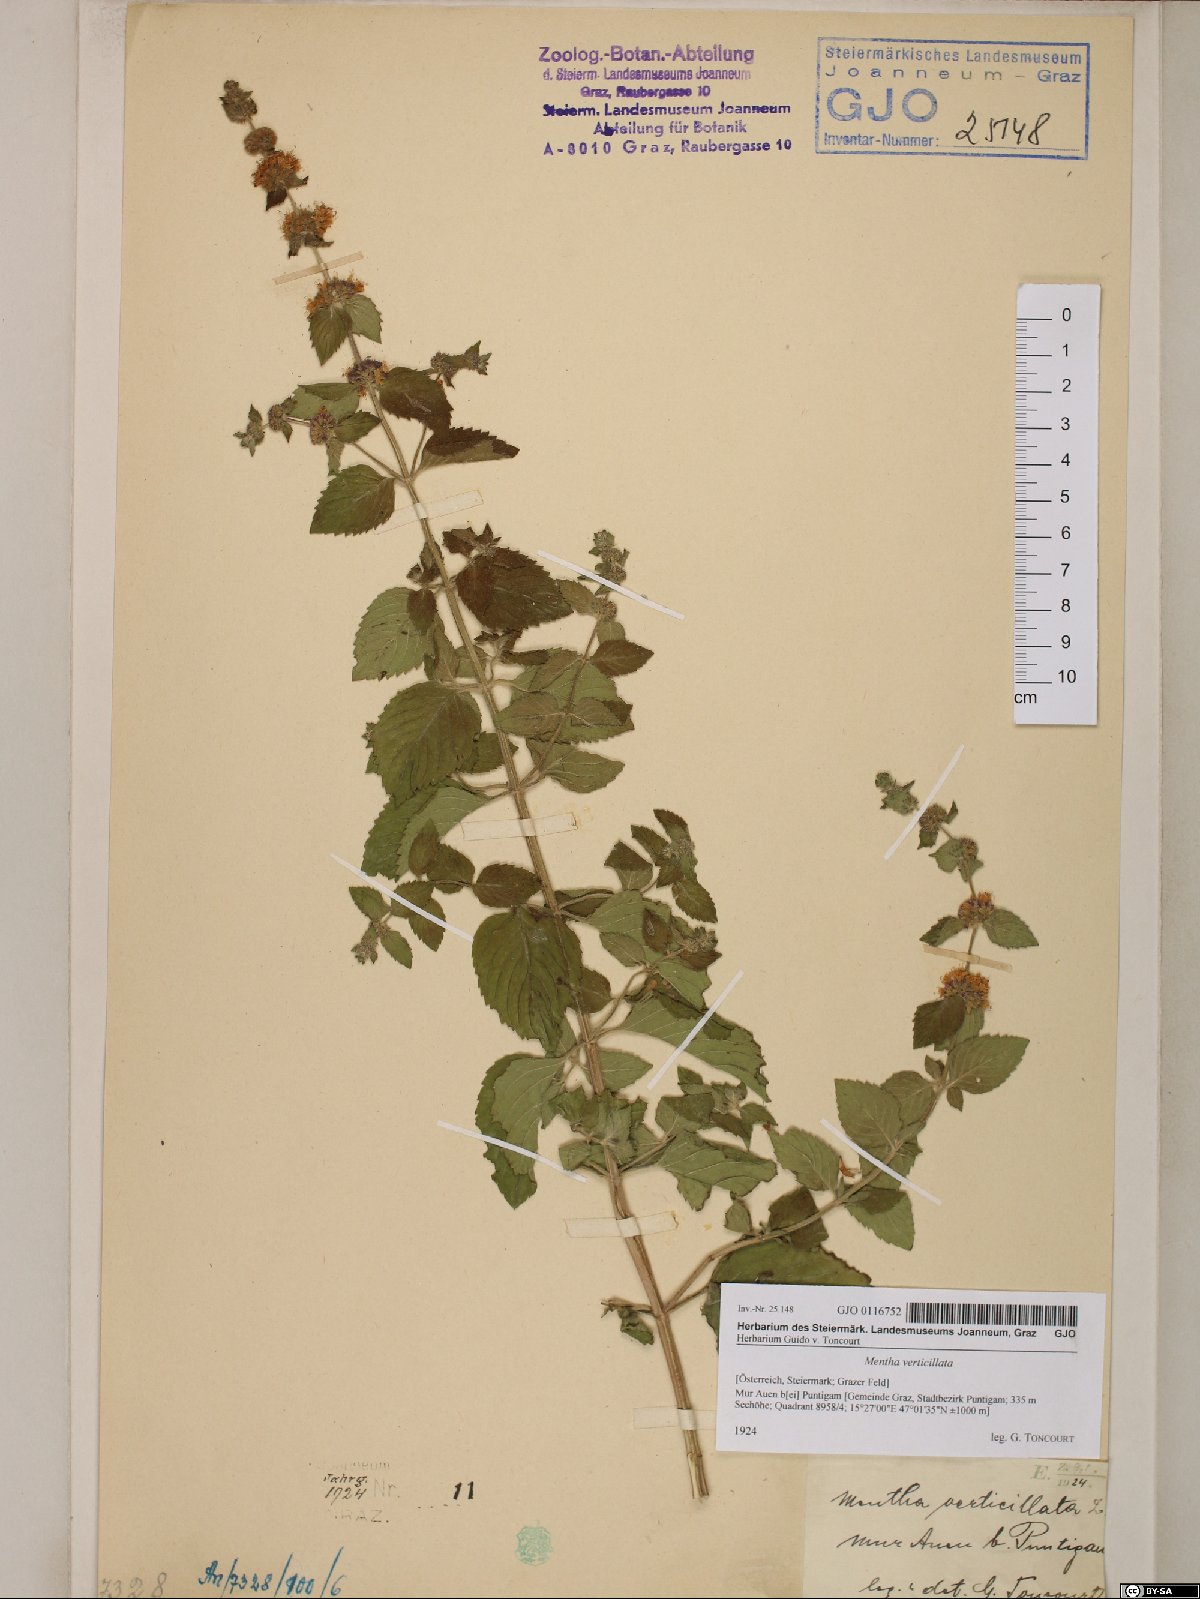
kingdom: Plantae
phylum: Tracheophyta
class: Magnoliopsida
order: Lamiales
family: Lamiaceae
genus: Mentha
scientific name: Mentha verticillata
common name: Mint
